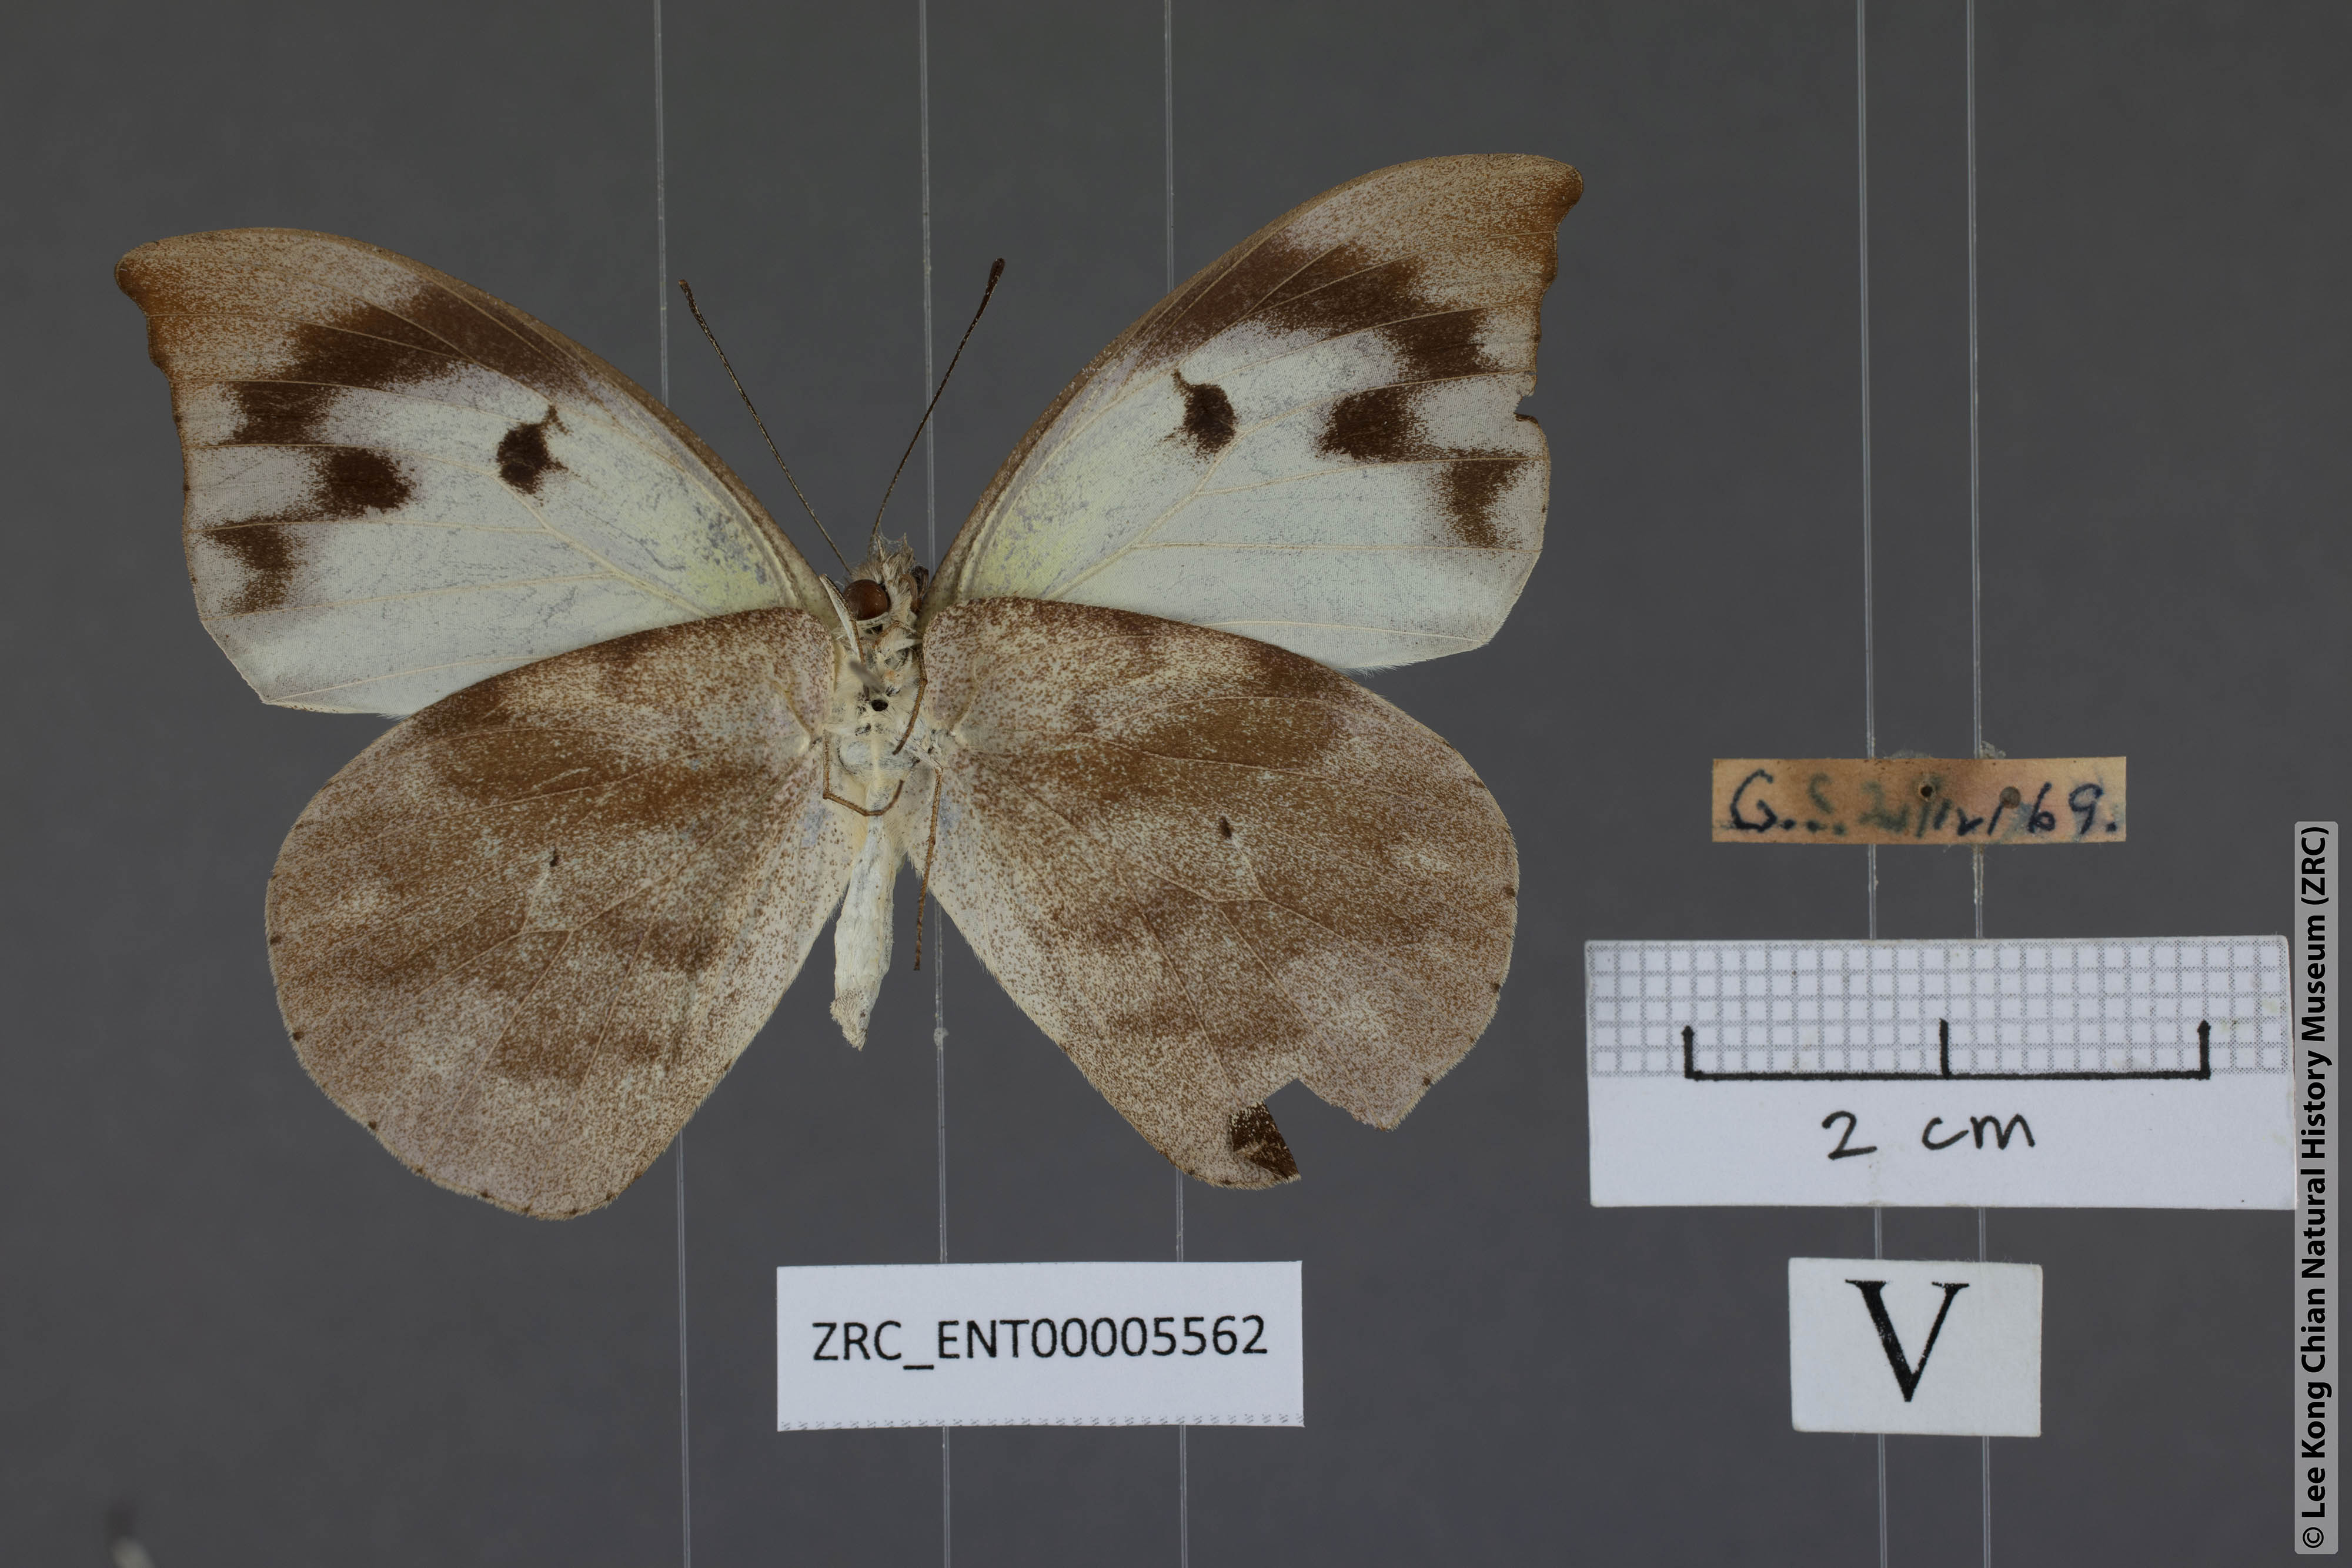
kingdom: Animalia
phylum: Arthropoda
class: Insecta
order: Lepidoptera
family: Pieridae
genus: Appias
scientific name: Appias lalassis
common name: Burmese puffin
